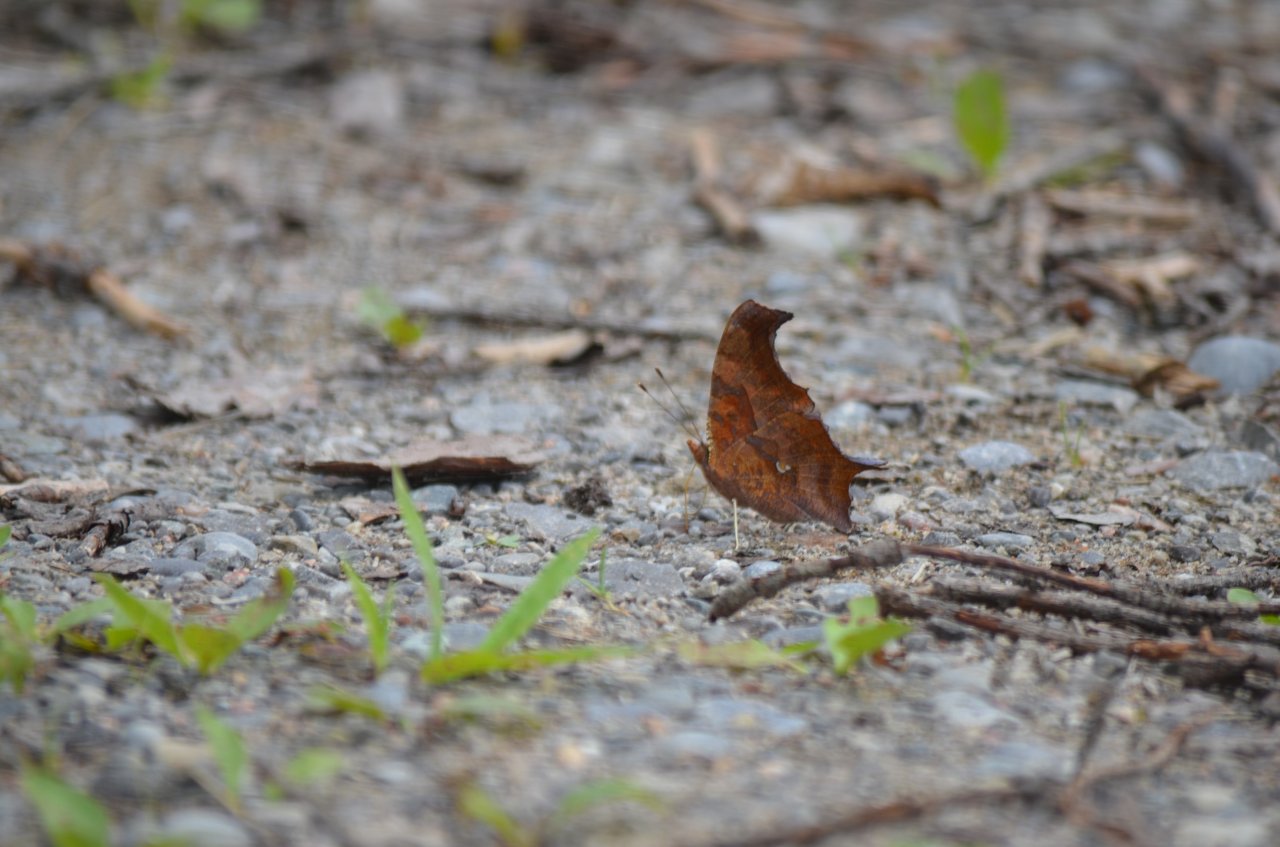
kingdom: Animalia
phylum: Arthropoda
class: Insecta
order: Lepidoptera
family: Nymphalidae
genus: Polygonia
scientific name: Polygonia interrogationis
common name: Question Mark
